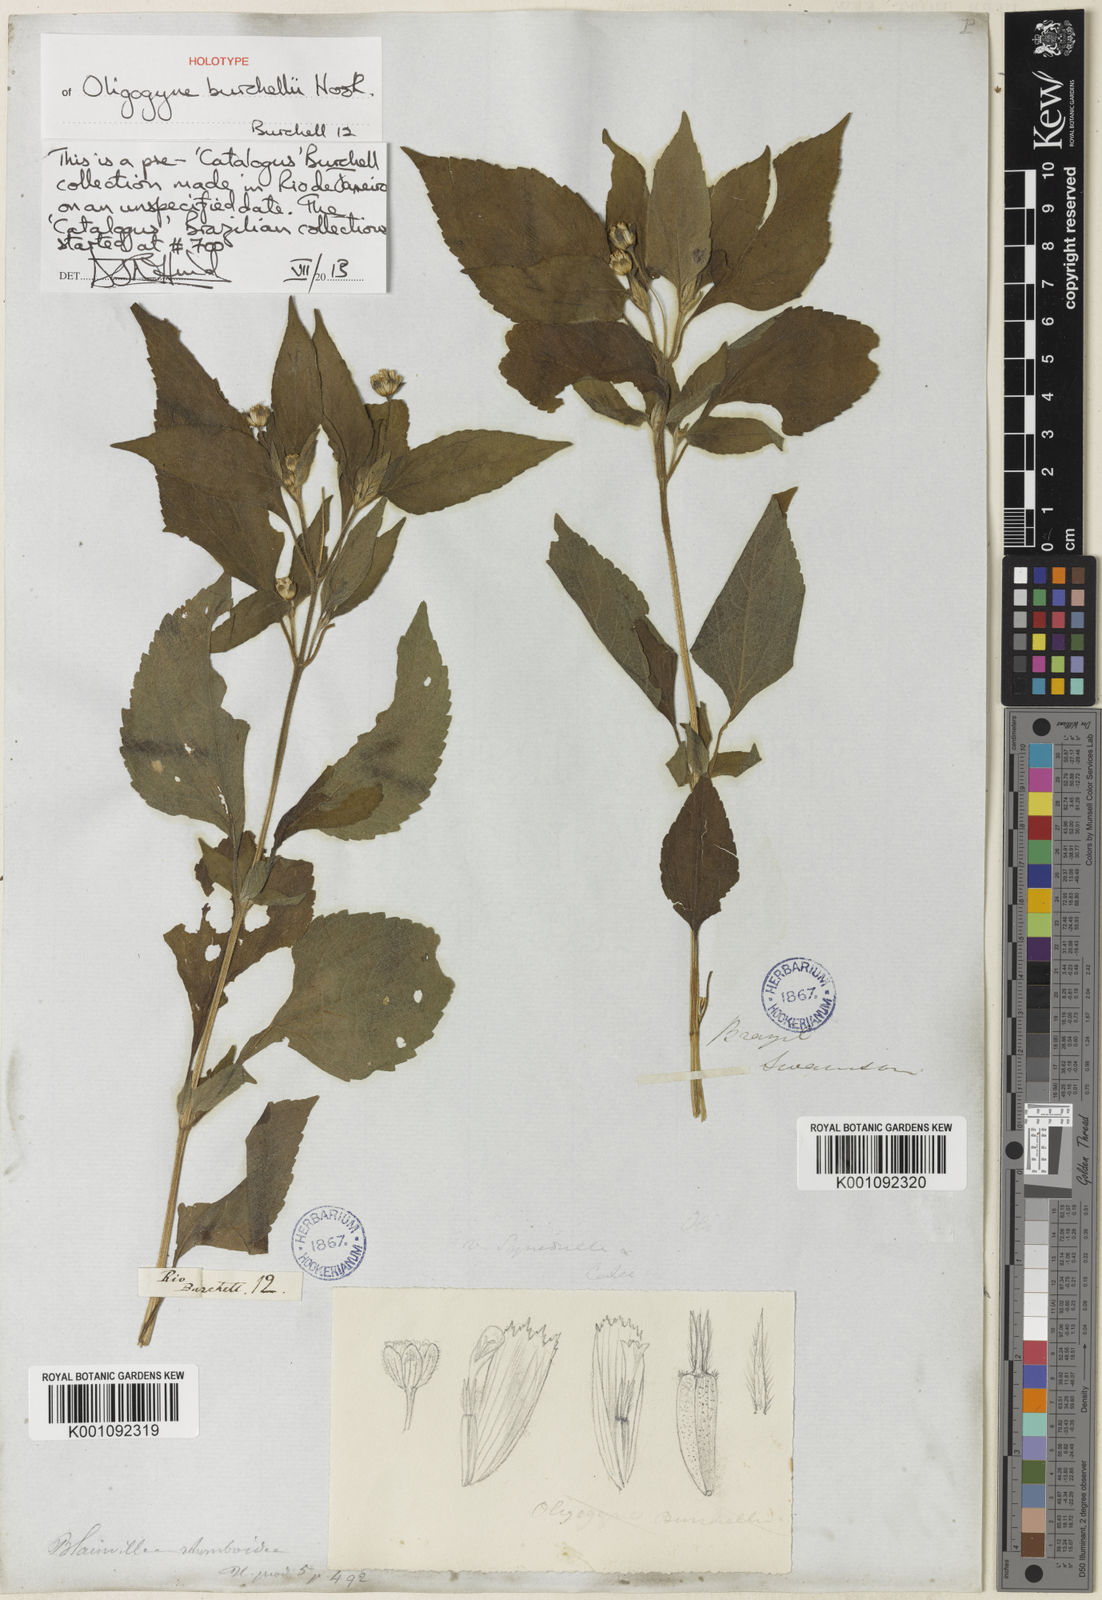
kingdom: Plantae
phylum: Tracheophyta
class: Magnoliopsida
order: Asterales
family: Asteraceae
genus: Blainvillea
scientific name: Blainvillea gayana
